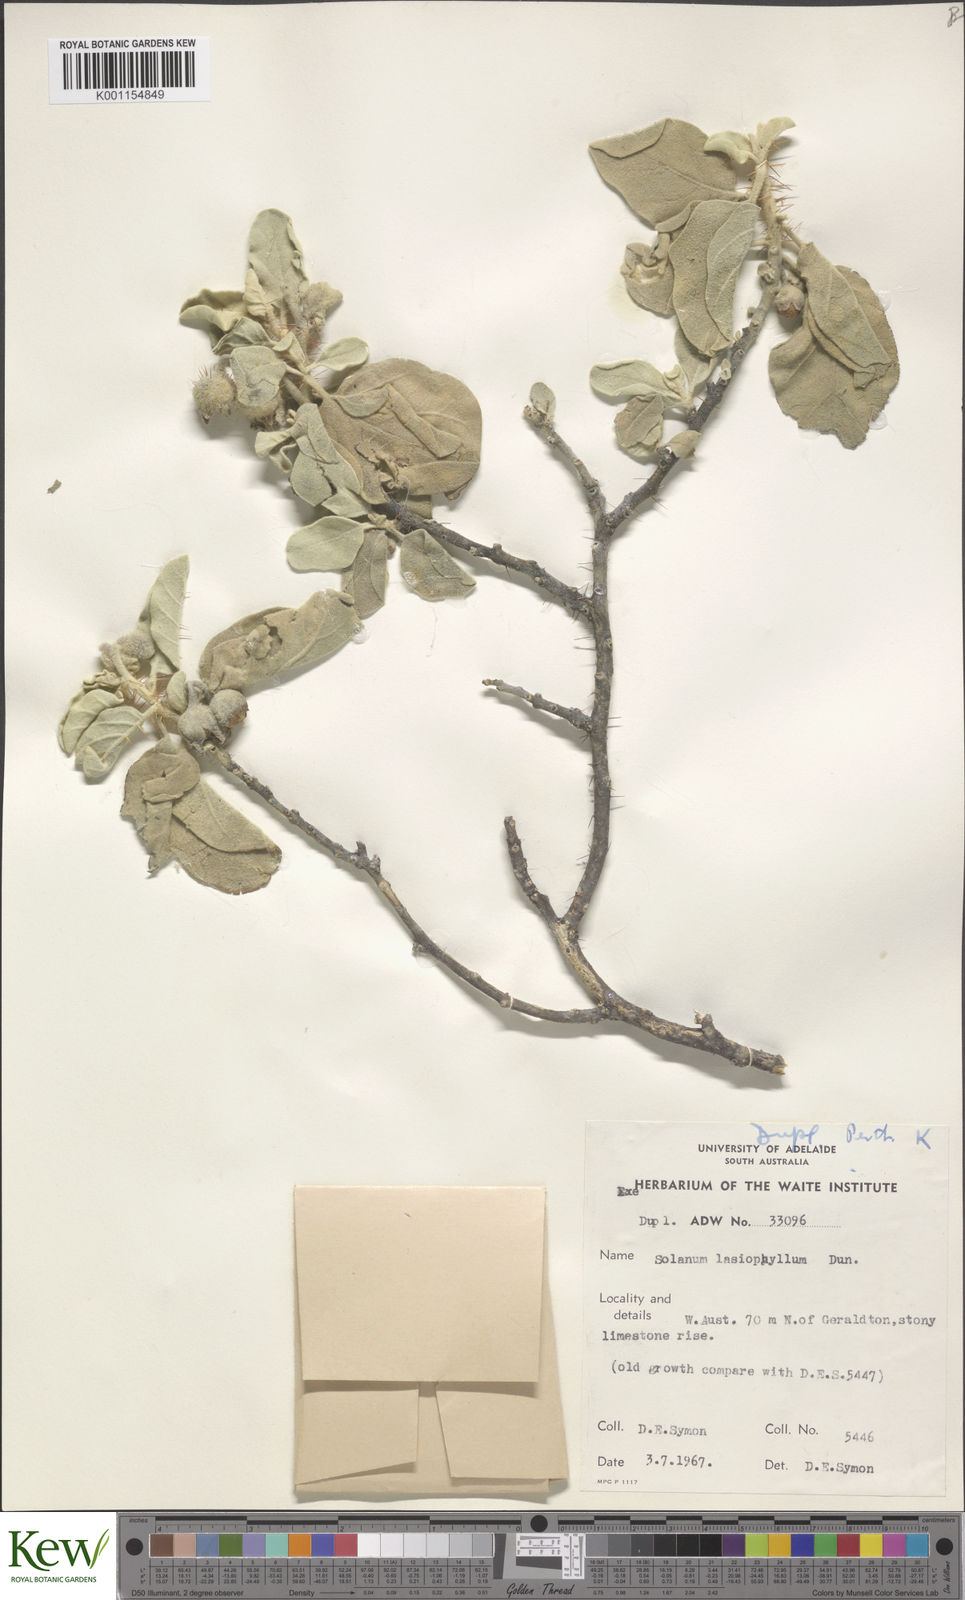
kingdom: Plantae
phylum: Tracheophyta
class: Magnoliopsida
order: Solanales
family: Solanaceae
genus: Solanum
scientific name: Solanum lasiophyllum
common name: Flannelbush
